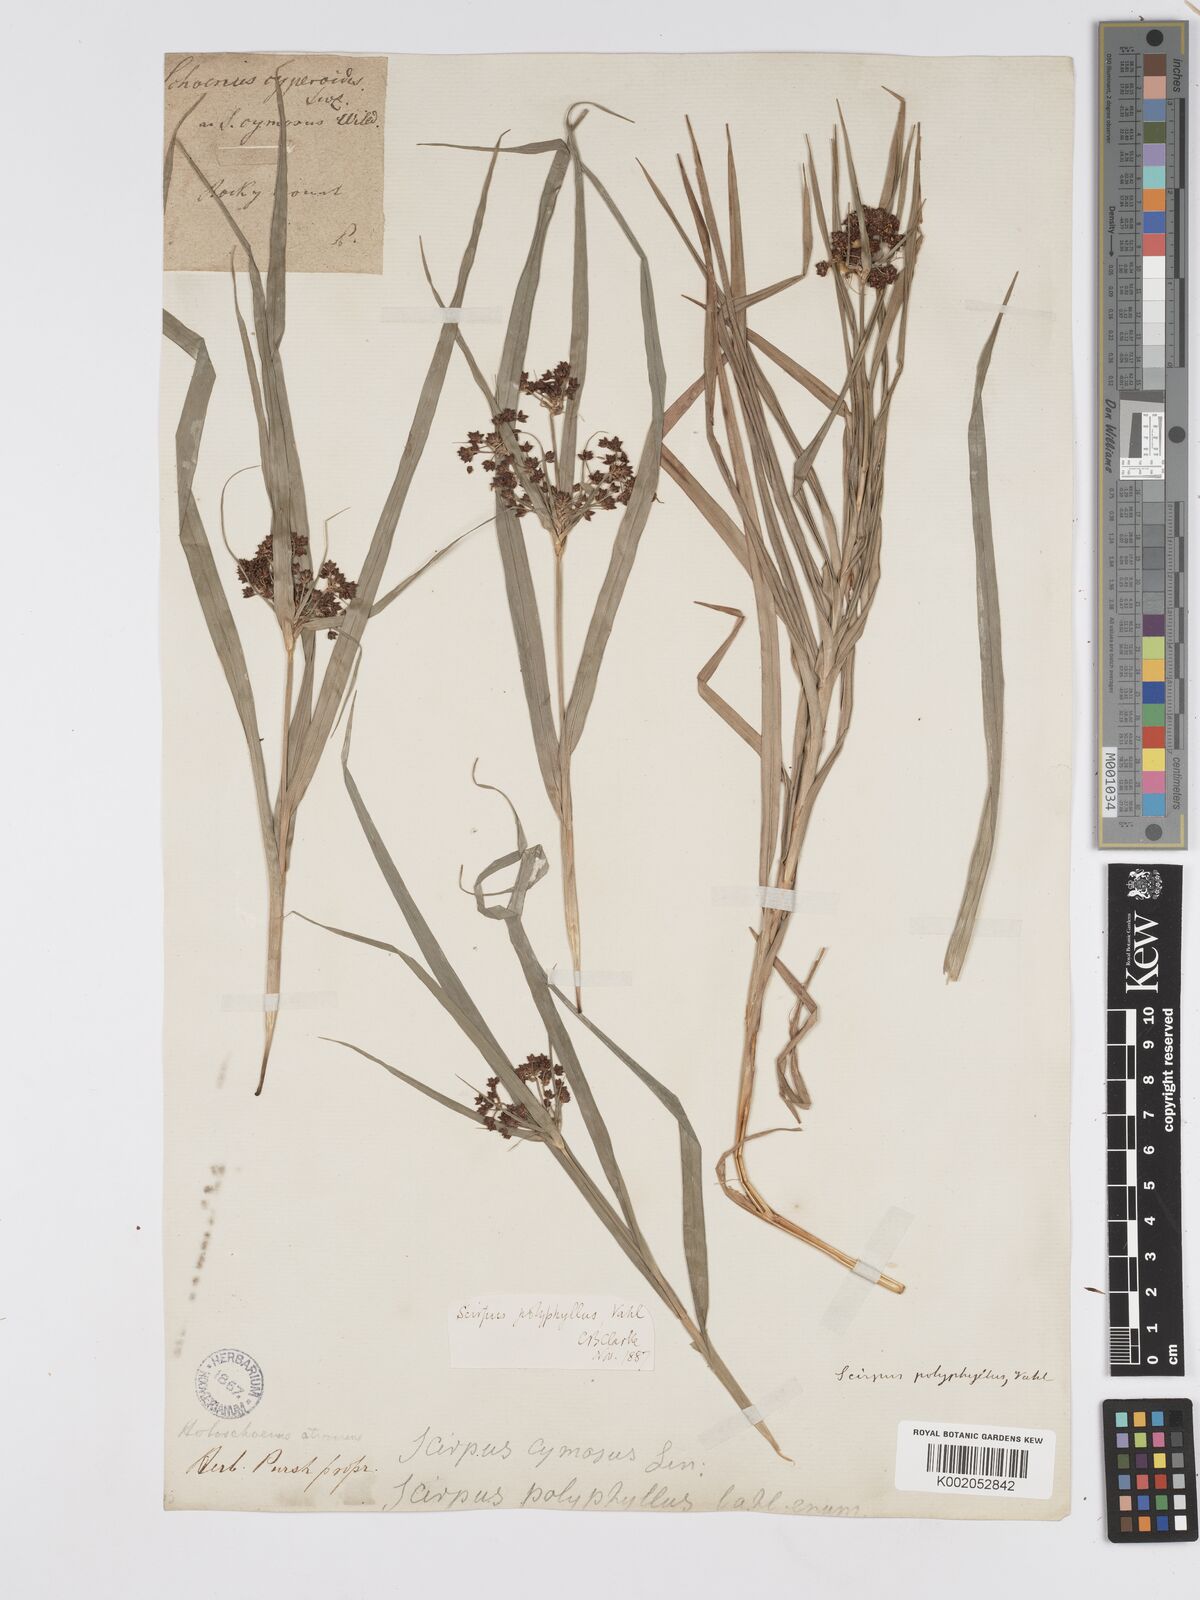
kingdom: Plantae
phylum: Tracheophyta
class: Liliopsida
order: Poales
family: Cyperaceae
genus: Scirpus
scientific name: Scirpus polyphyllus
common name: Leafy bulrush
